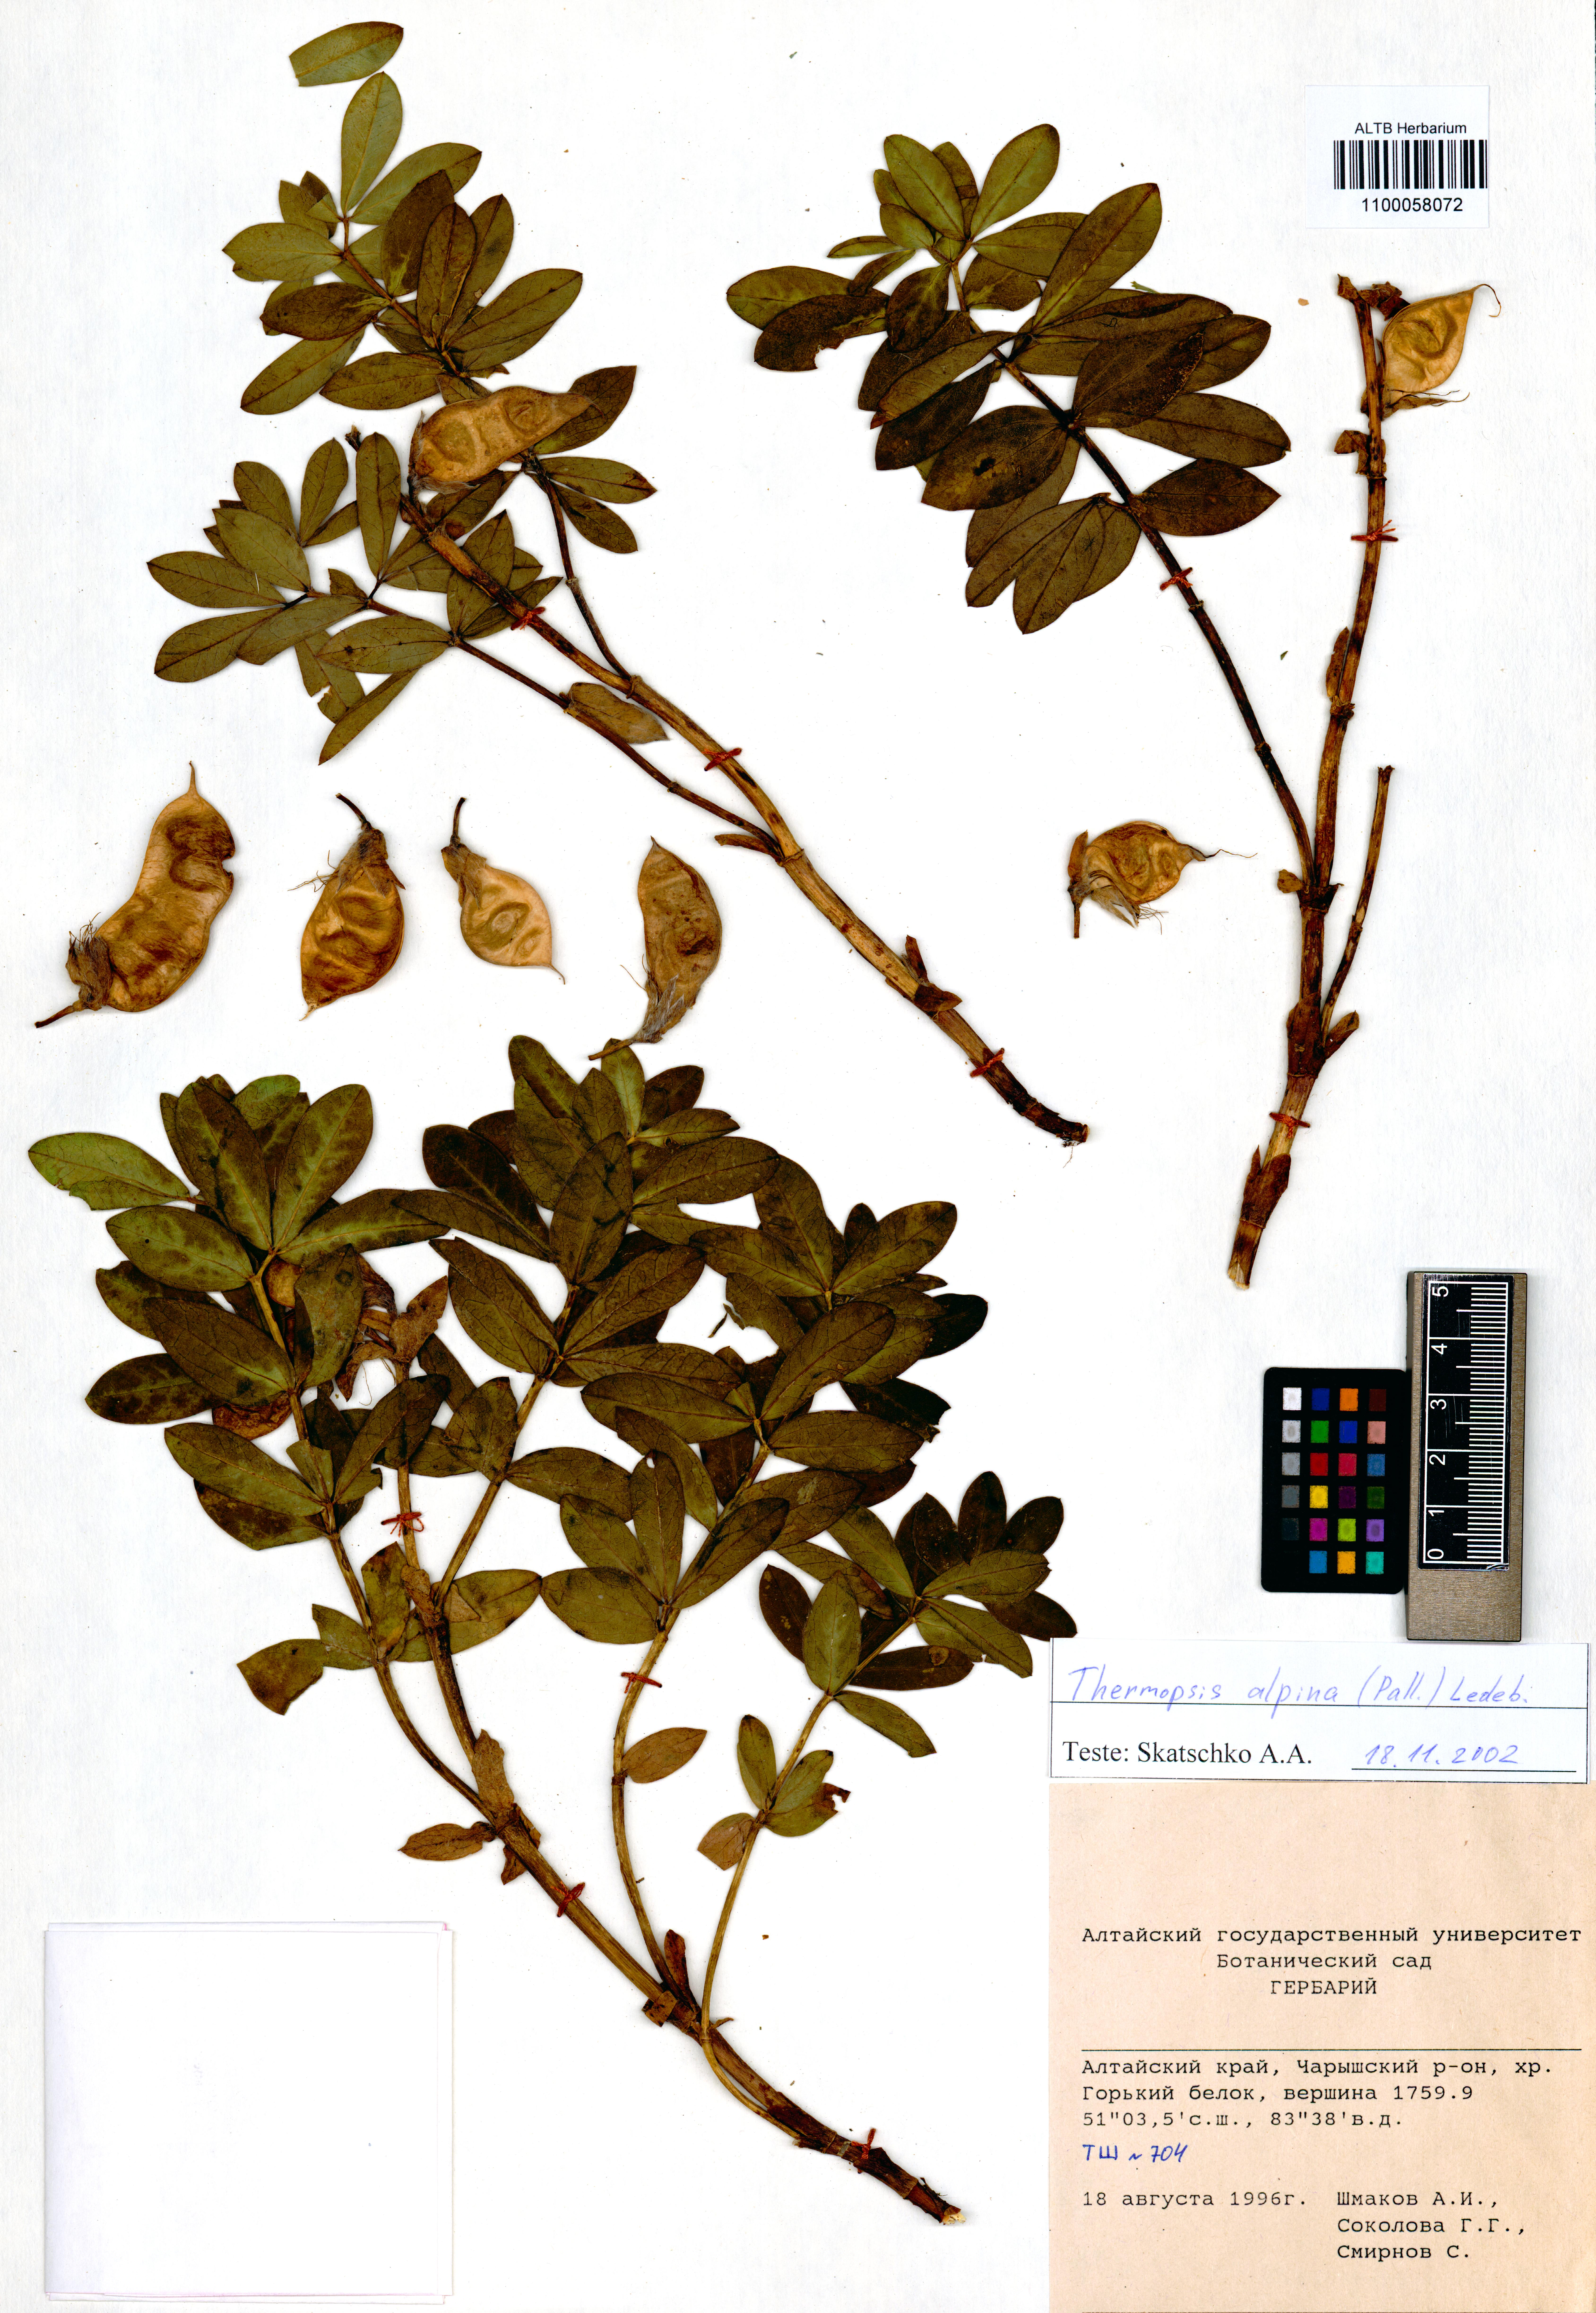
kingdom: Plantae
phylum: Tracheophyta
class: Magnoliopsida
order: Fabales
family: Fabaceae
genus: Thermopsis
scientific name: Thermopsis alpina
